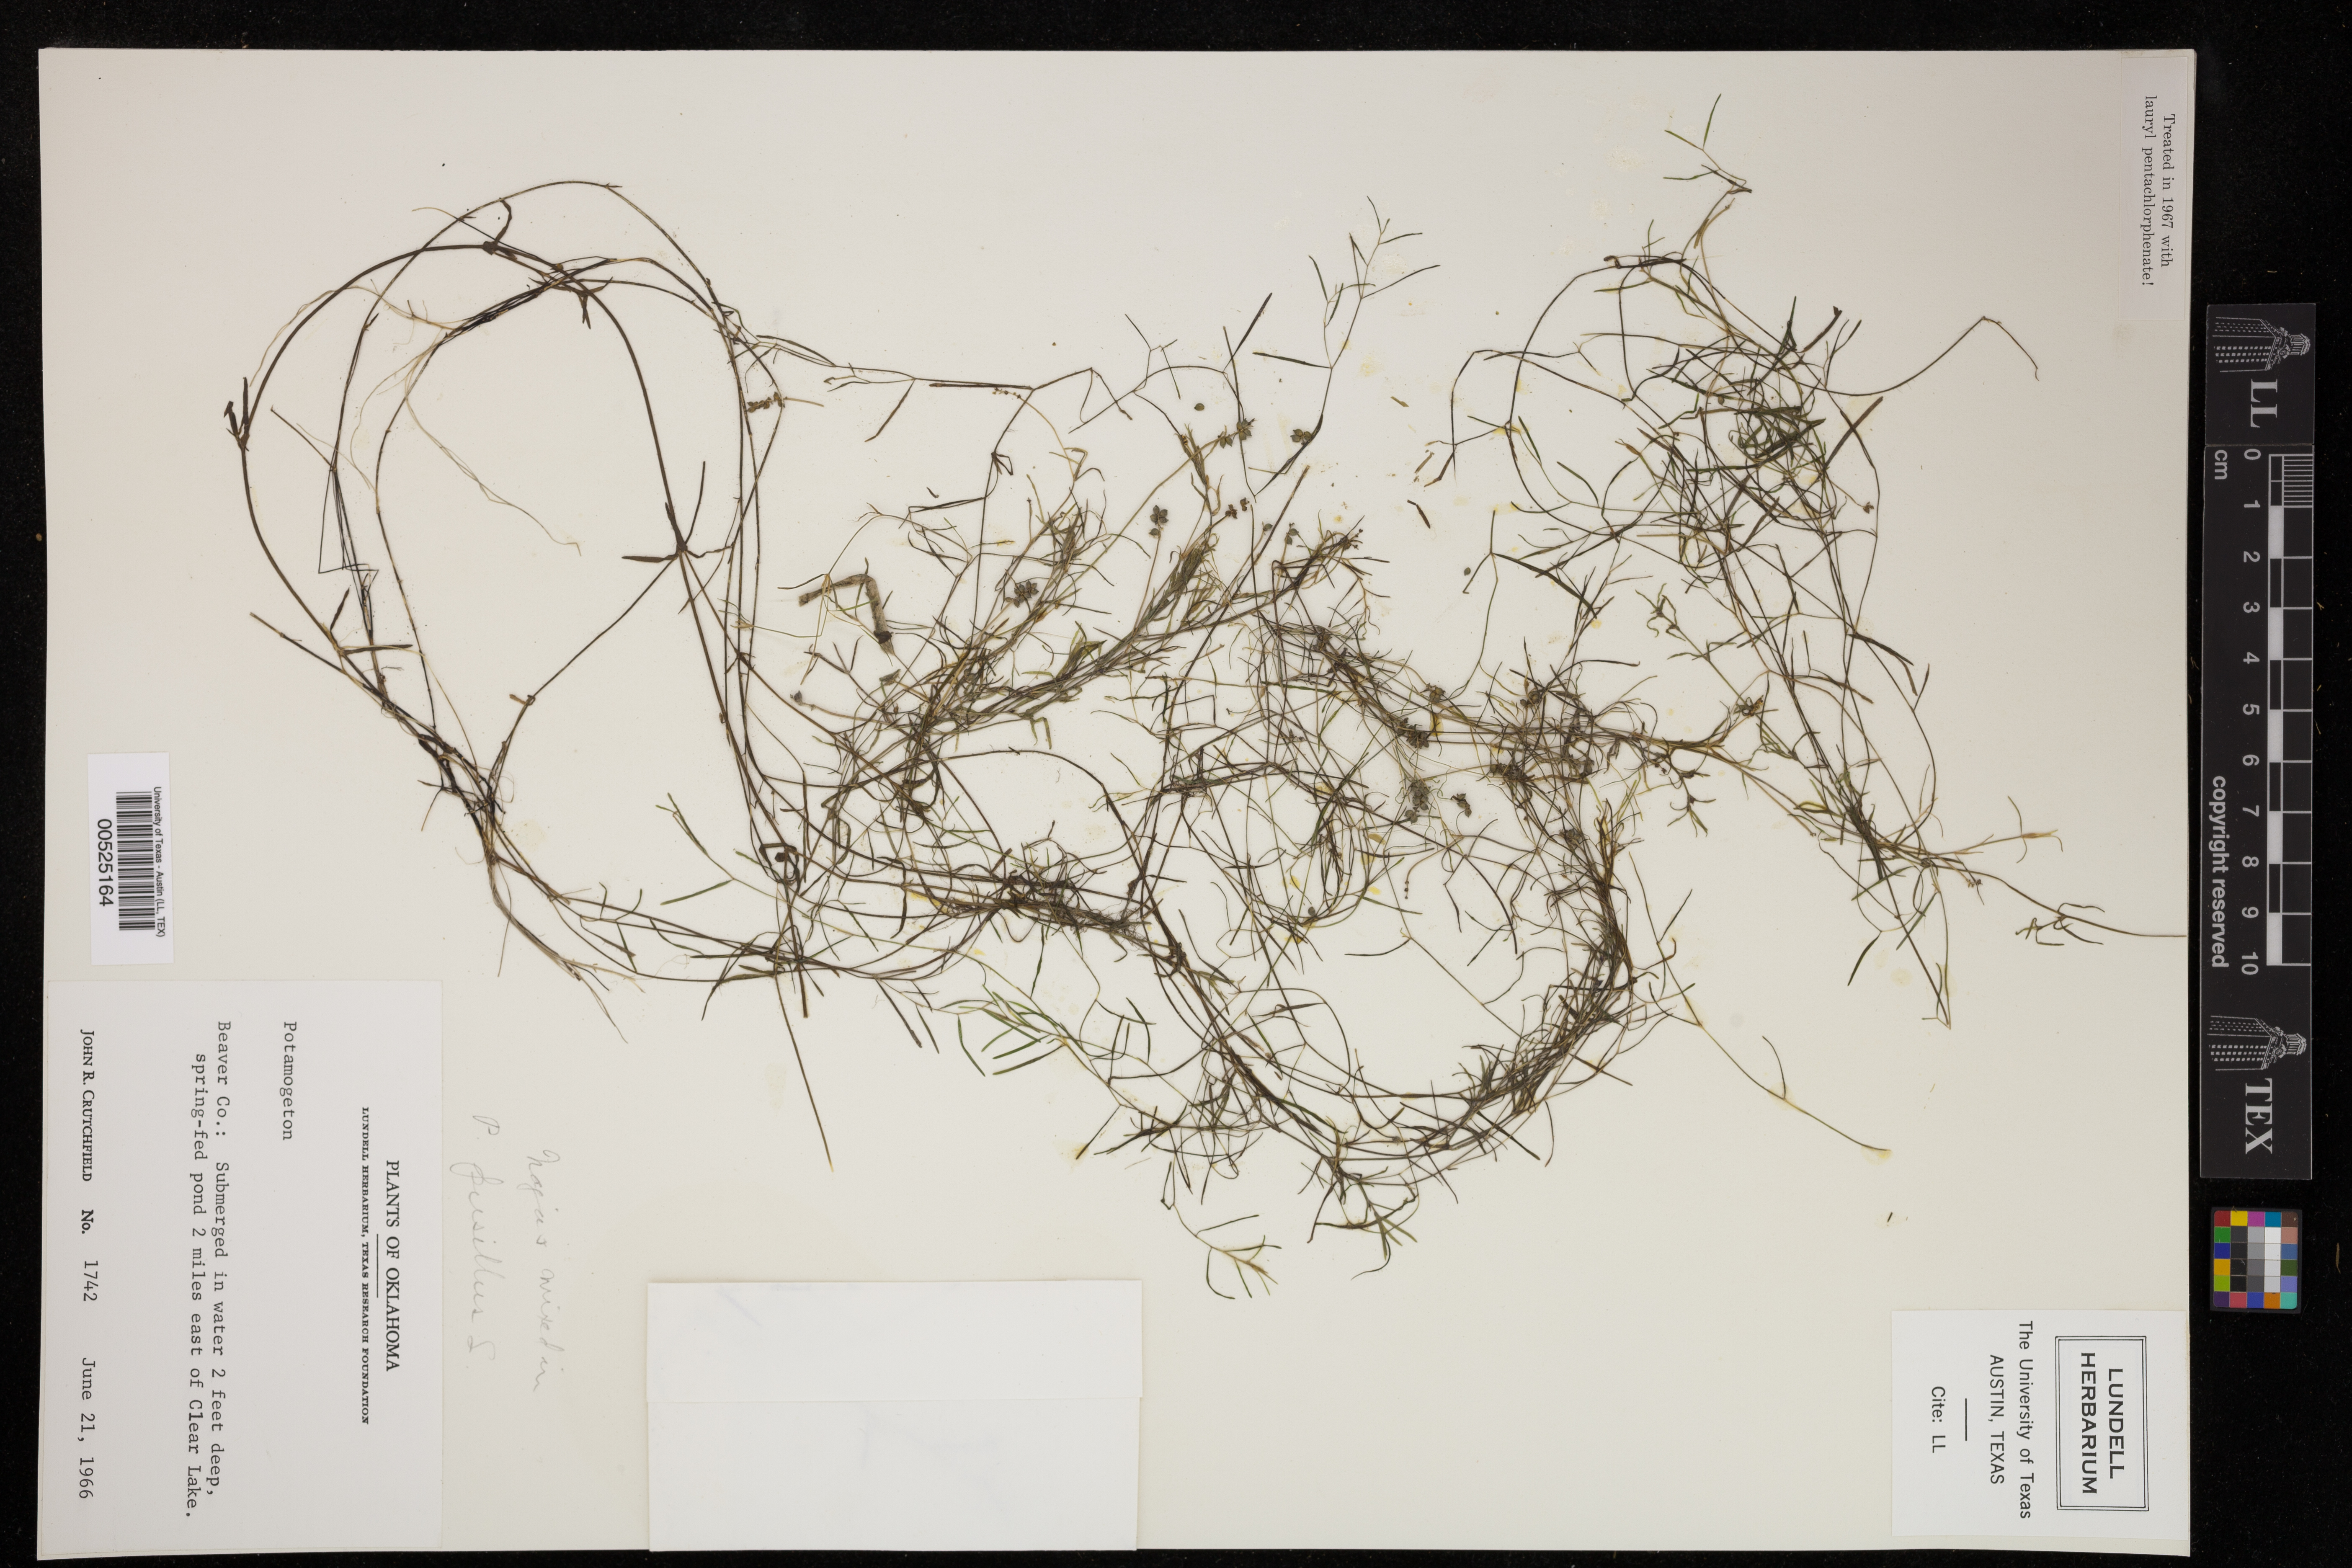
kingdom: Plantae
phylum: Tracheophyta
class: Liliopsida
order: Alismatales
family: Potamogetonaceae
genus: Potamogeton
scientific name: Potamogeton pusillus
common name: Lesser pondweed
